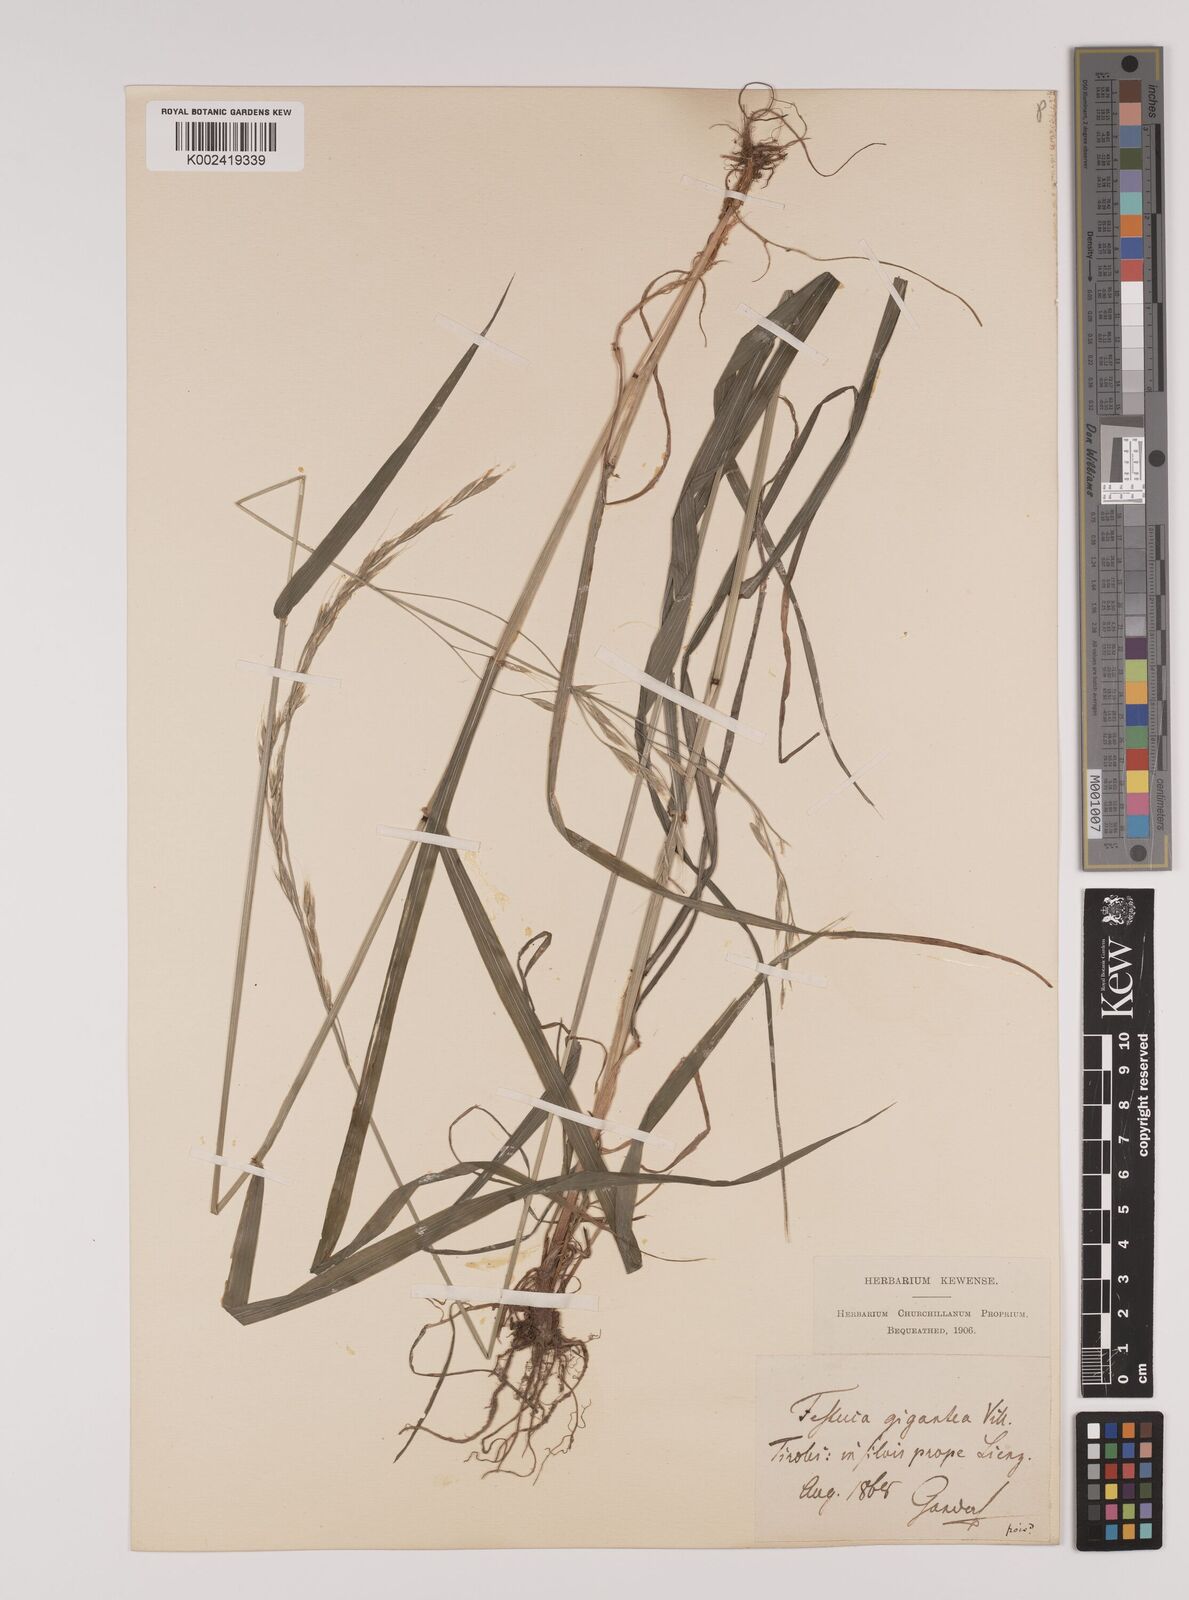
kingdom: Plantae
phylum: Tracheophyta
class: Liliopsida
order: Poales
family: Poaceae
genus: Lolium
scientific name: Lolium giganteum
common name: Giant fescue
